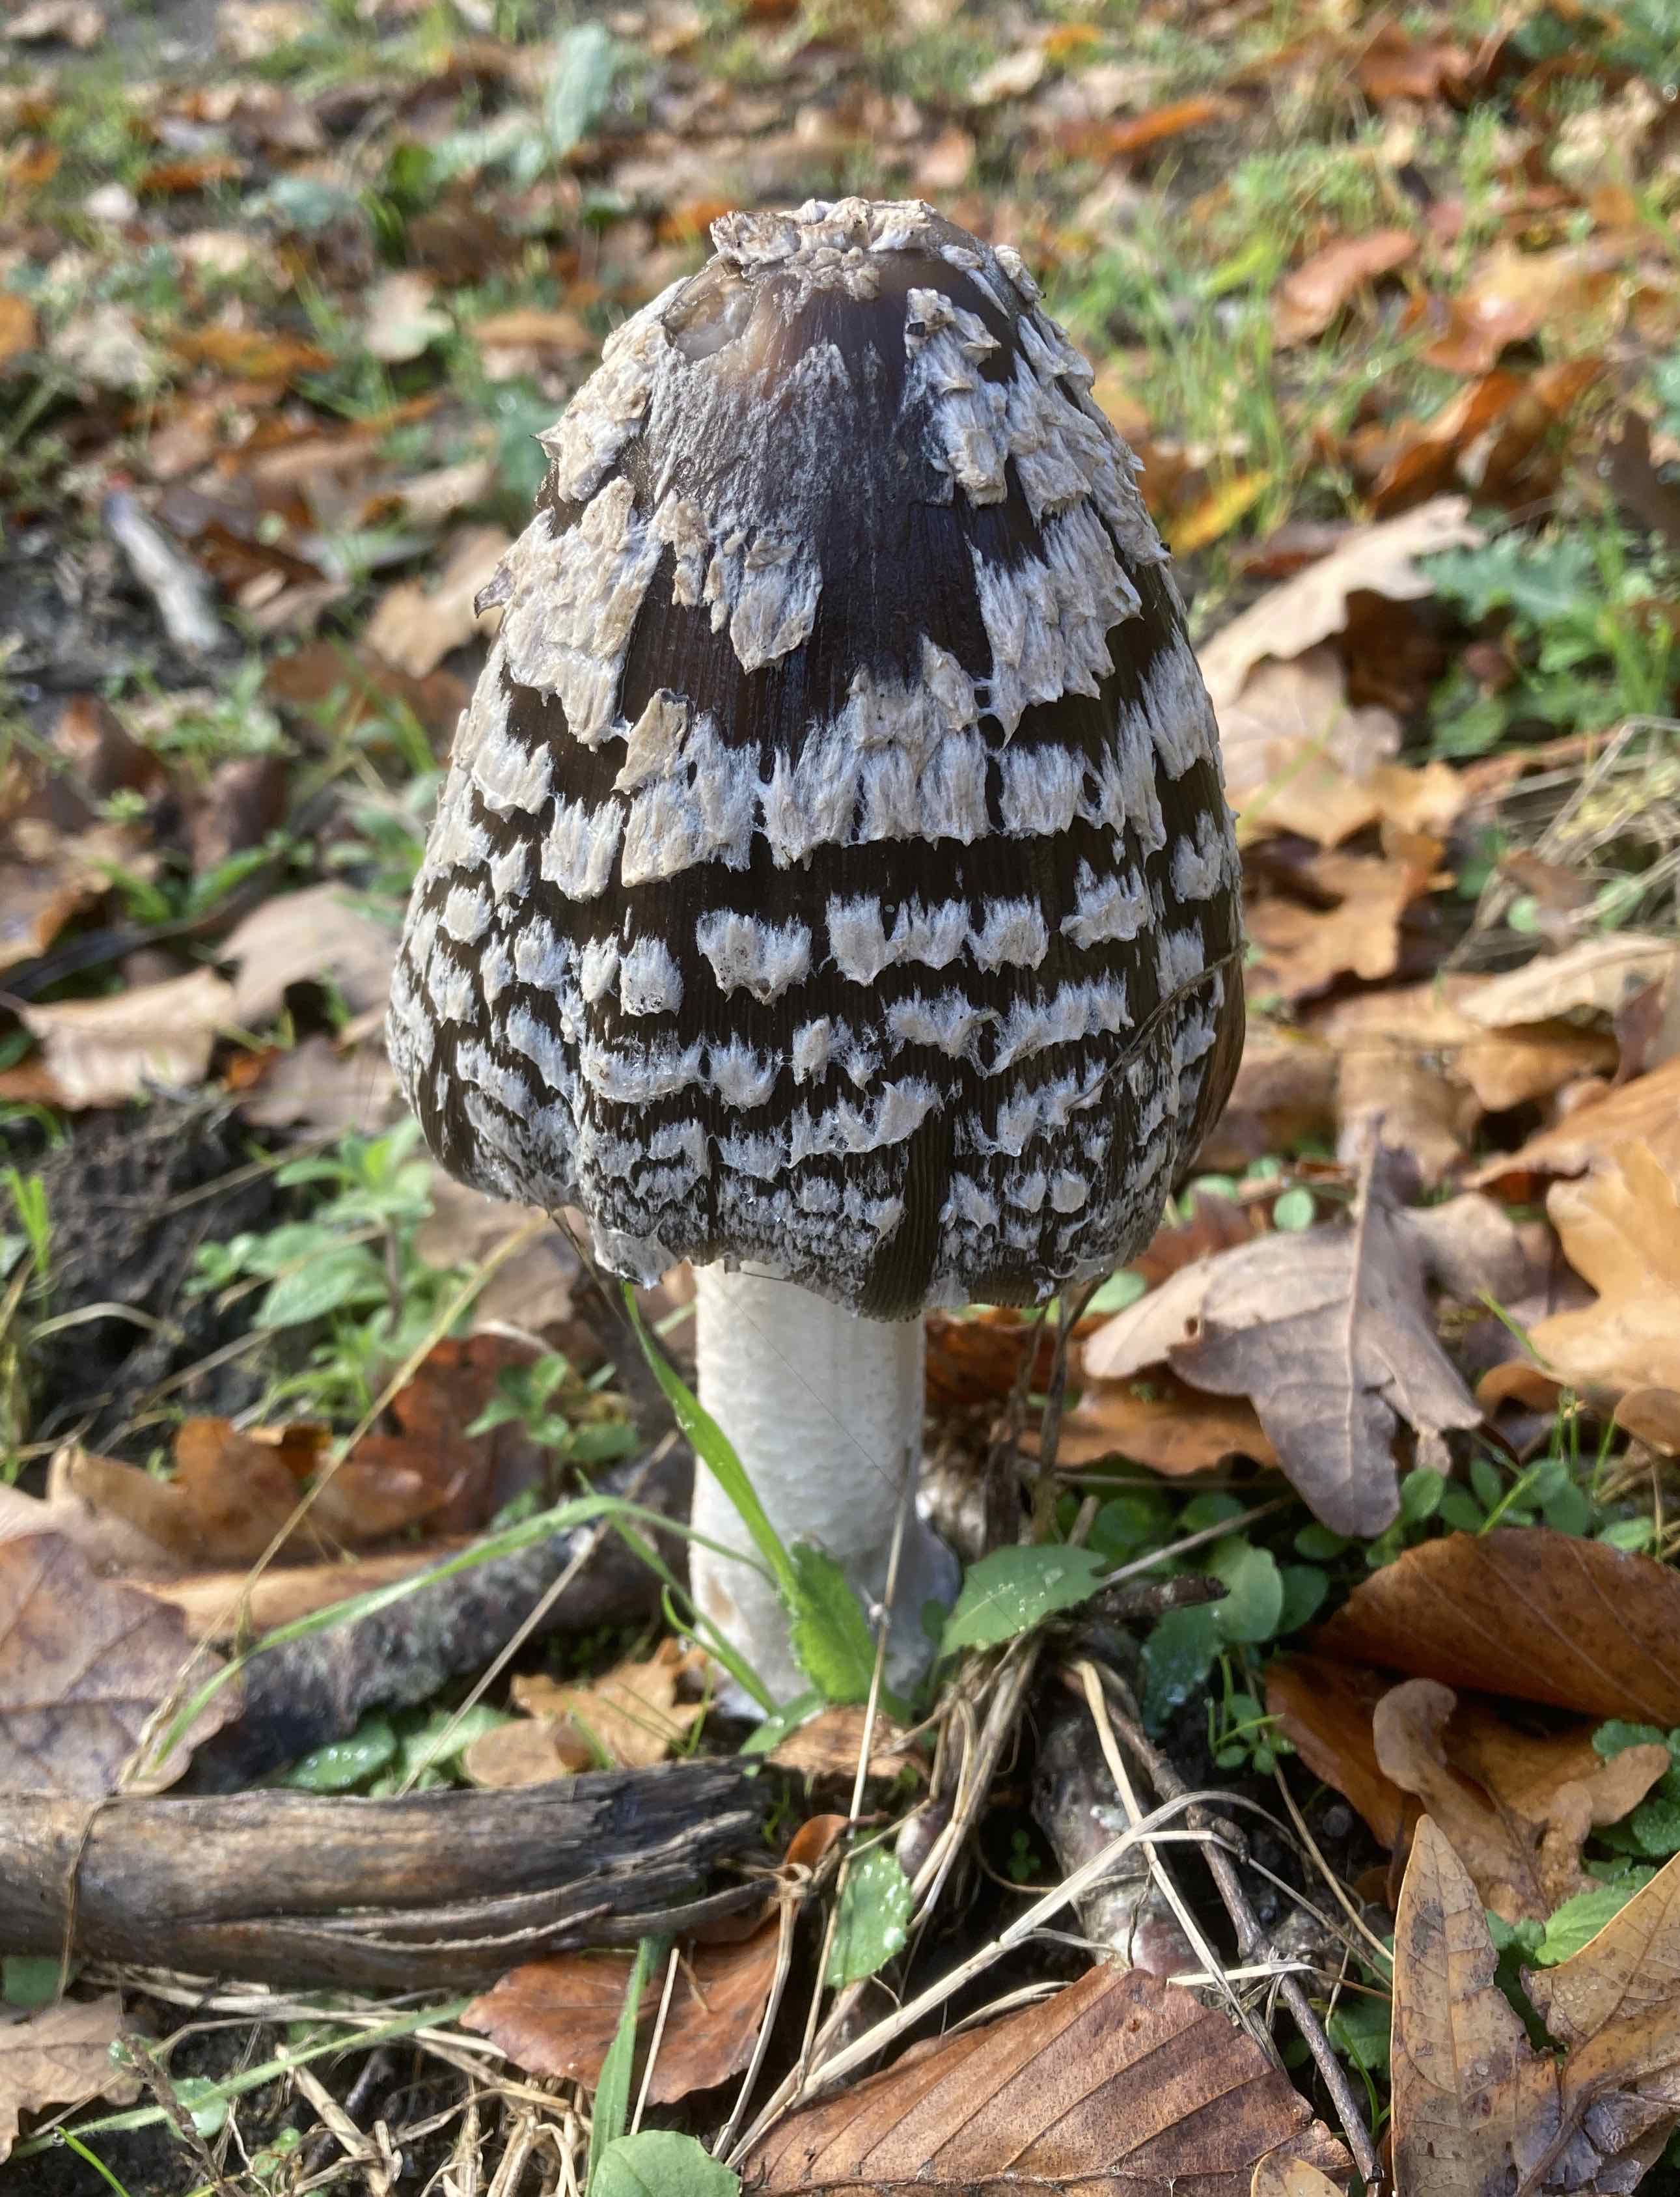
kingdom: Fungi
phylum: Basidiomycota
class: Agaricomycetes
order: Agaricales
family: Psathyrellaceae
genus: Coprinopsis
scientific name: Coprinopsis picacea
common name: skade-blækhat
